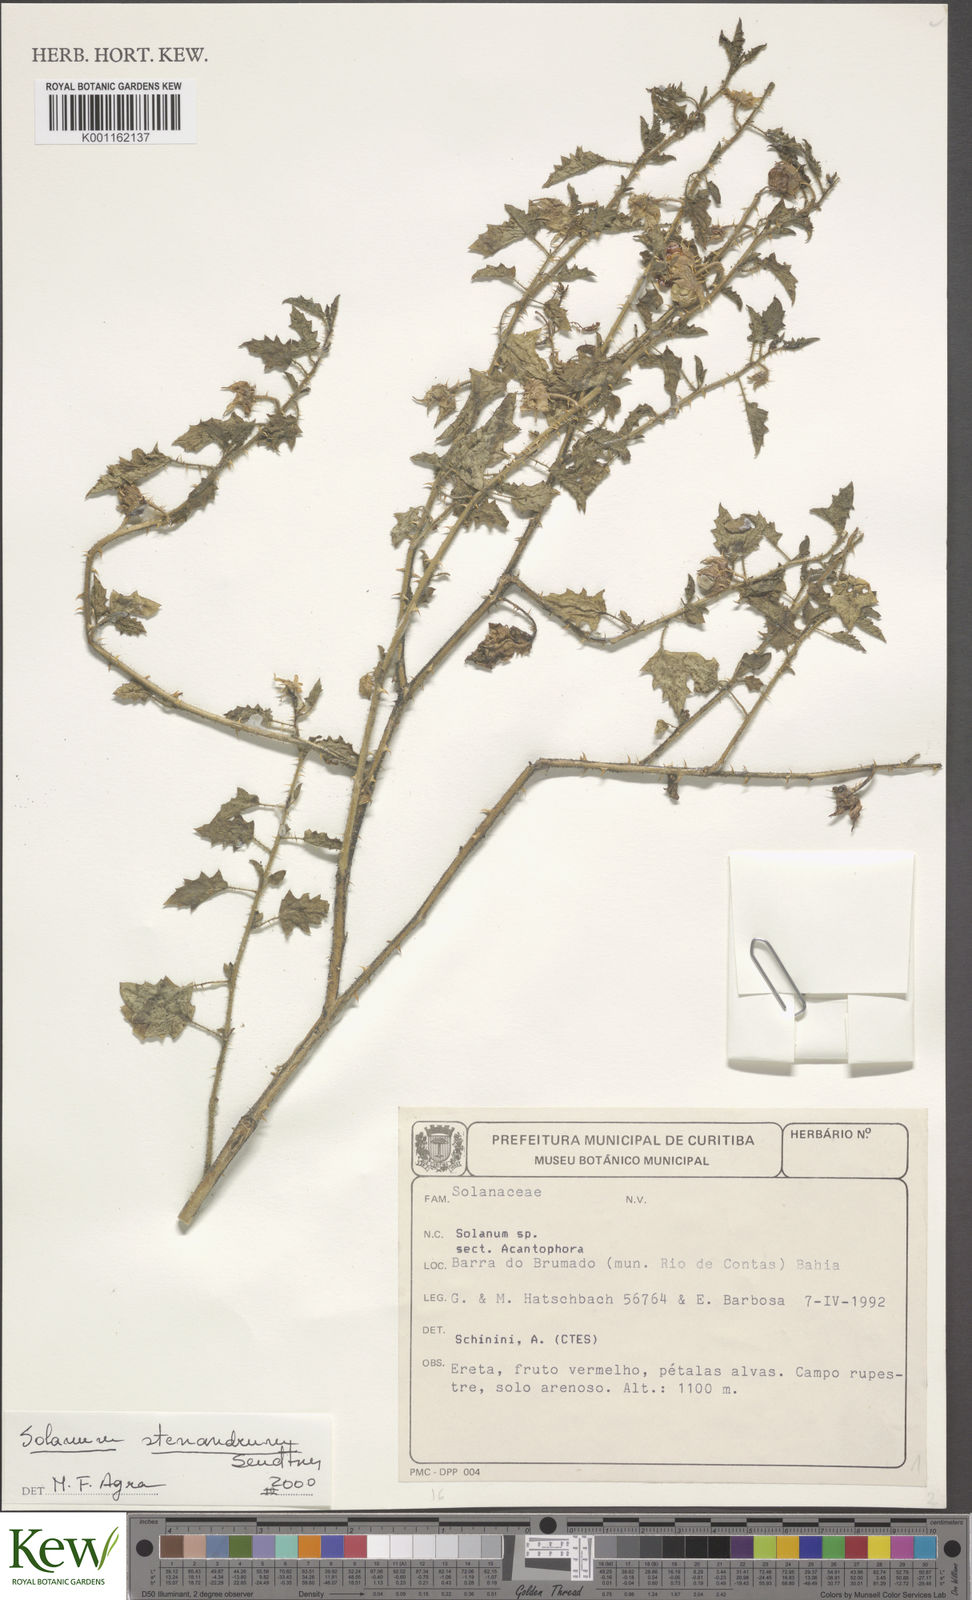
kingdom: Plantae
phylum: Tracheophyta
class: Magnoliopsida
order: Solanales
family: Solanaceae
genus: Solanum
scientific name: Solanum stenandrum
